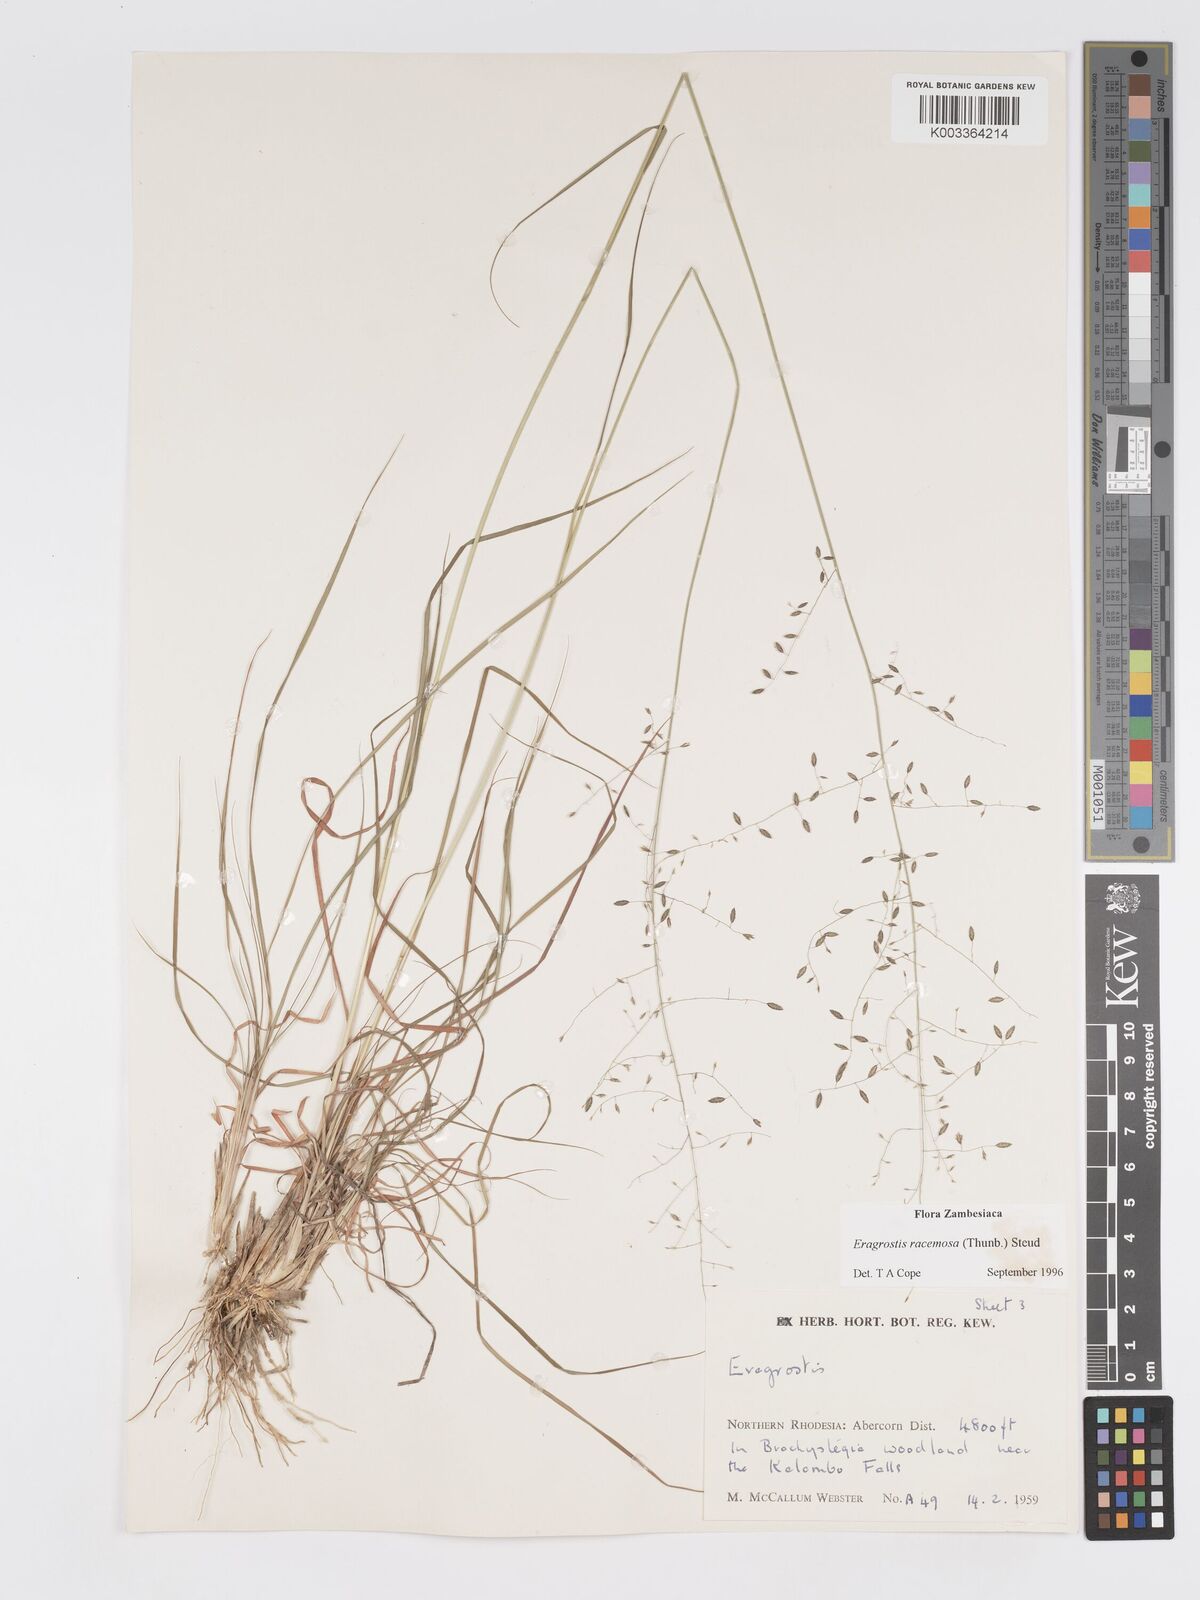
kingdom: Plantae
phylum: Tracheophyta
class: Liliopsida
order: Poales
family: Poaceae
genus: Eragrostis
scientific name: Eragrostis racemosa
